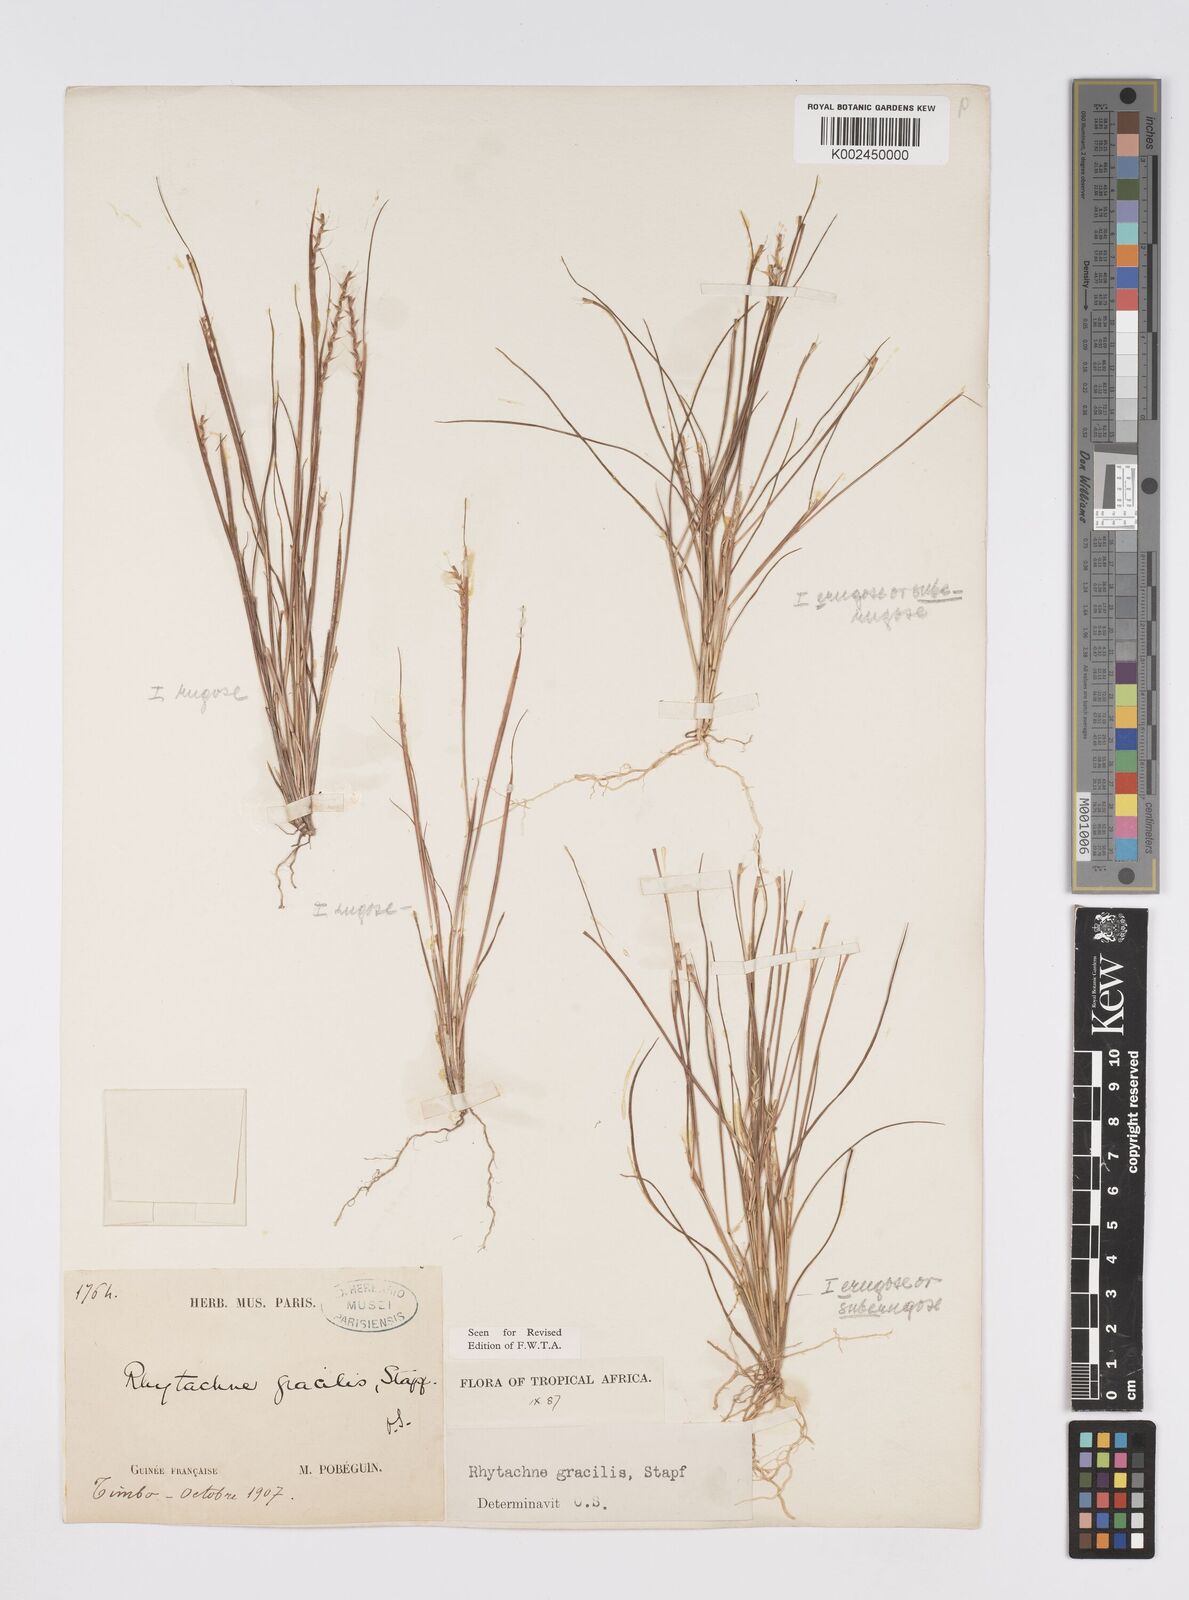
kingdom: Plantae
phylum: Tracheophyta
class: Liliopsida
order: Poales
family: Poaceae
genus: Rhytachne
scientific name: Rhytachne gracilis
